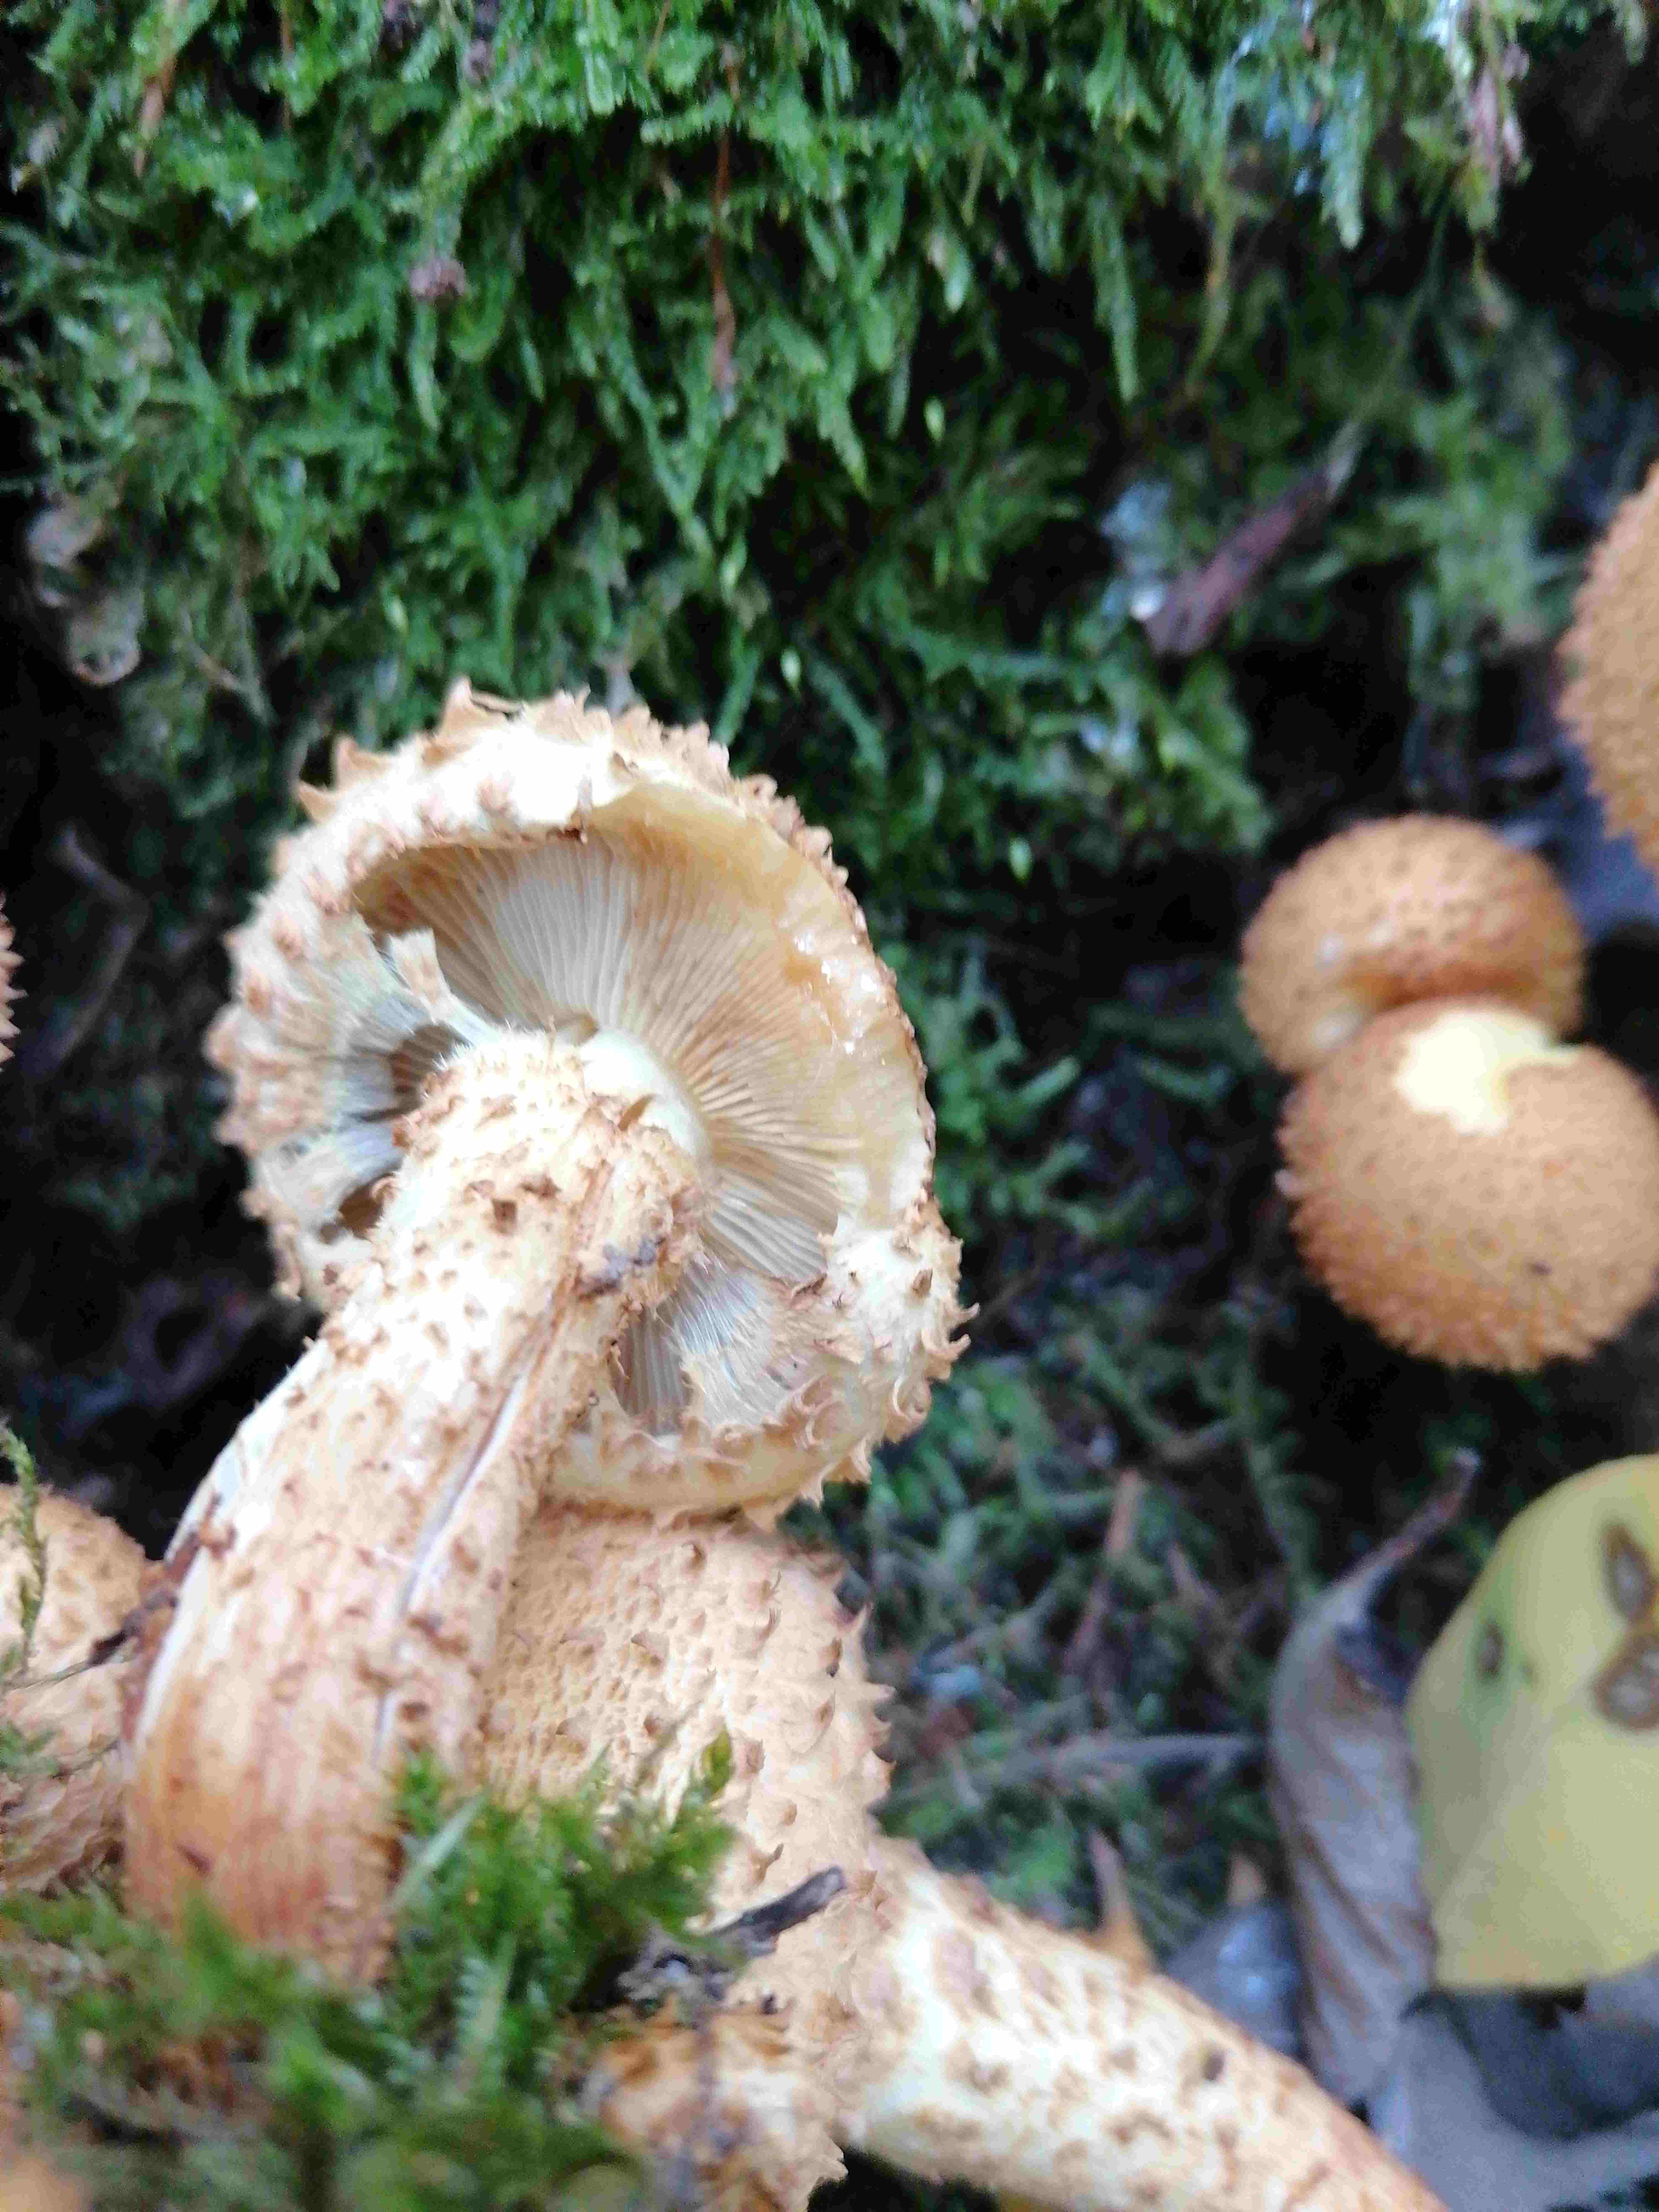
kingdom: Fungi
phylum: Basidiomycota
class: Agaricomycetes
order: Agaricales
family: Strophariaceae
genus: Pholiota
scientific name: Pholiota squarrosa
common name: krumskællet skælhat
